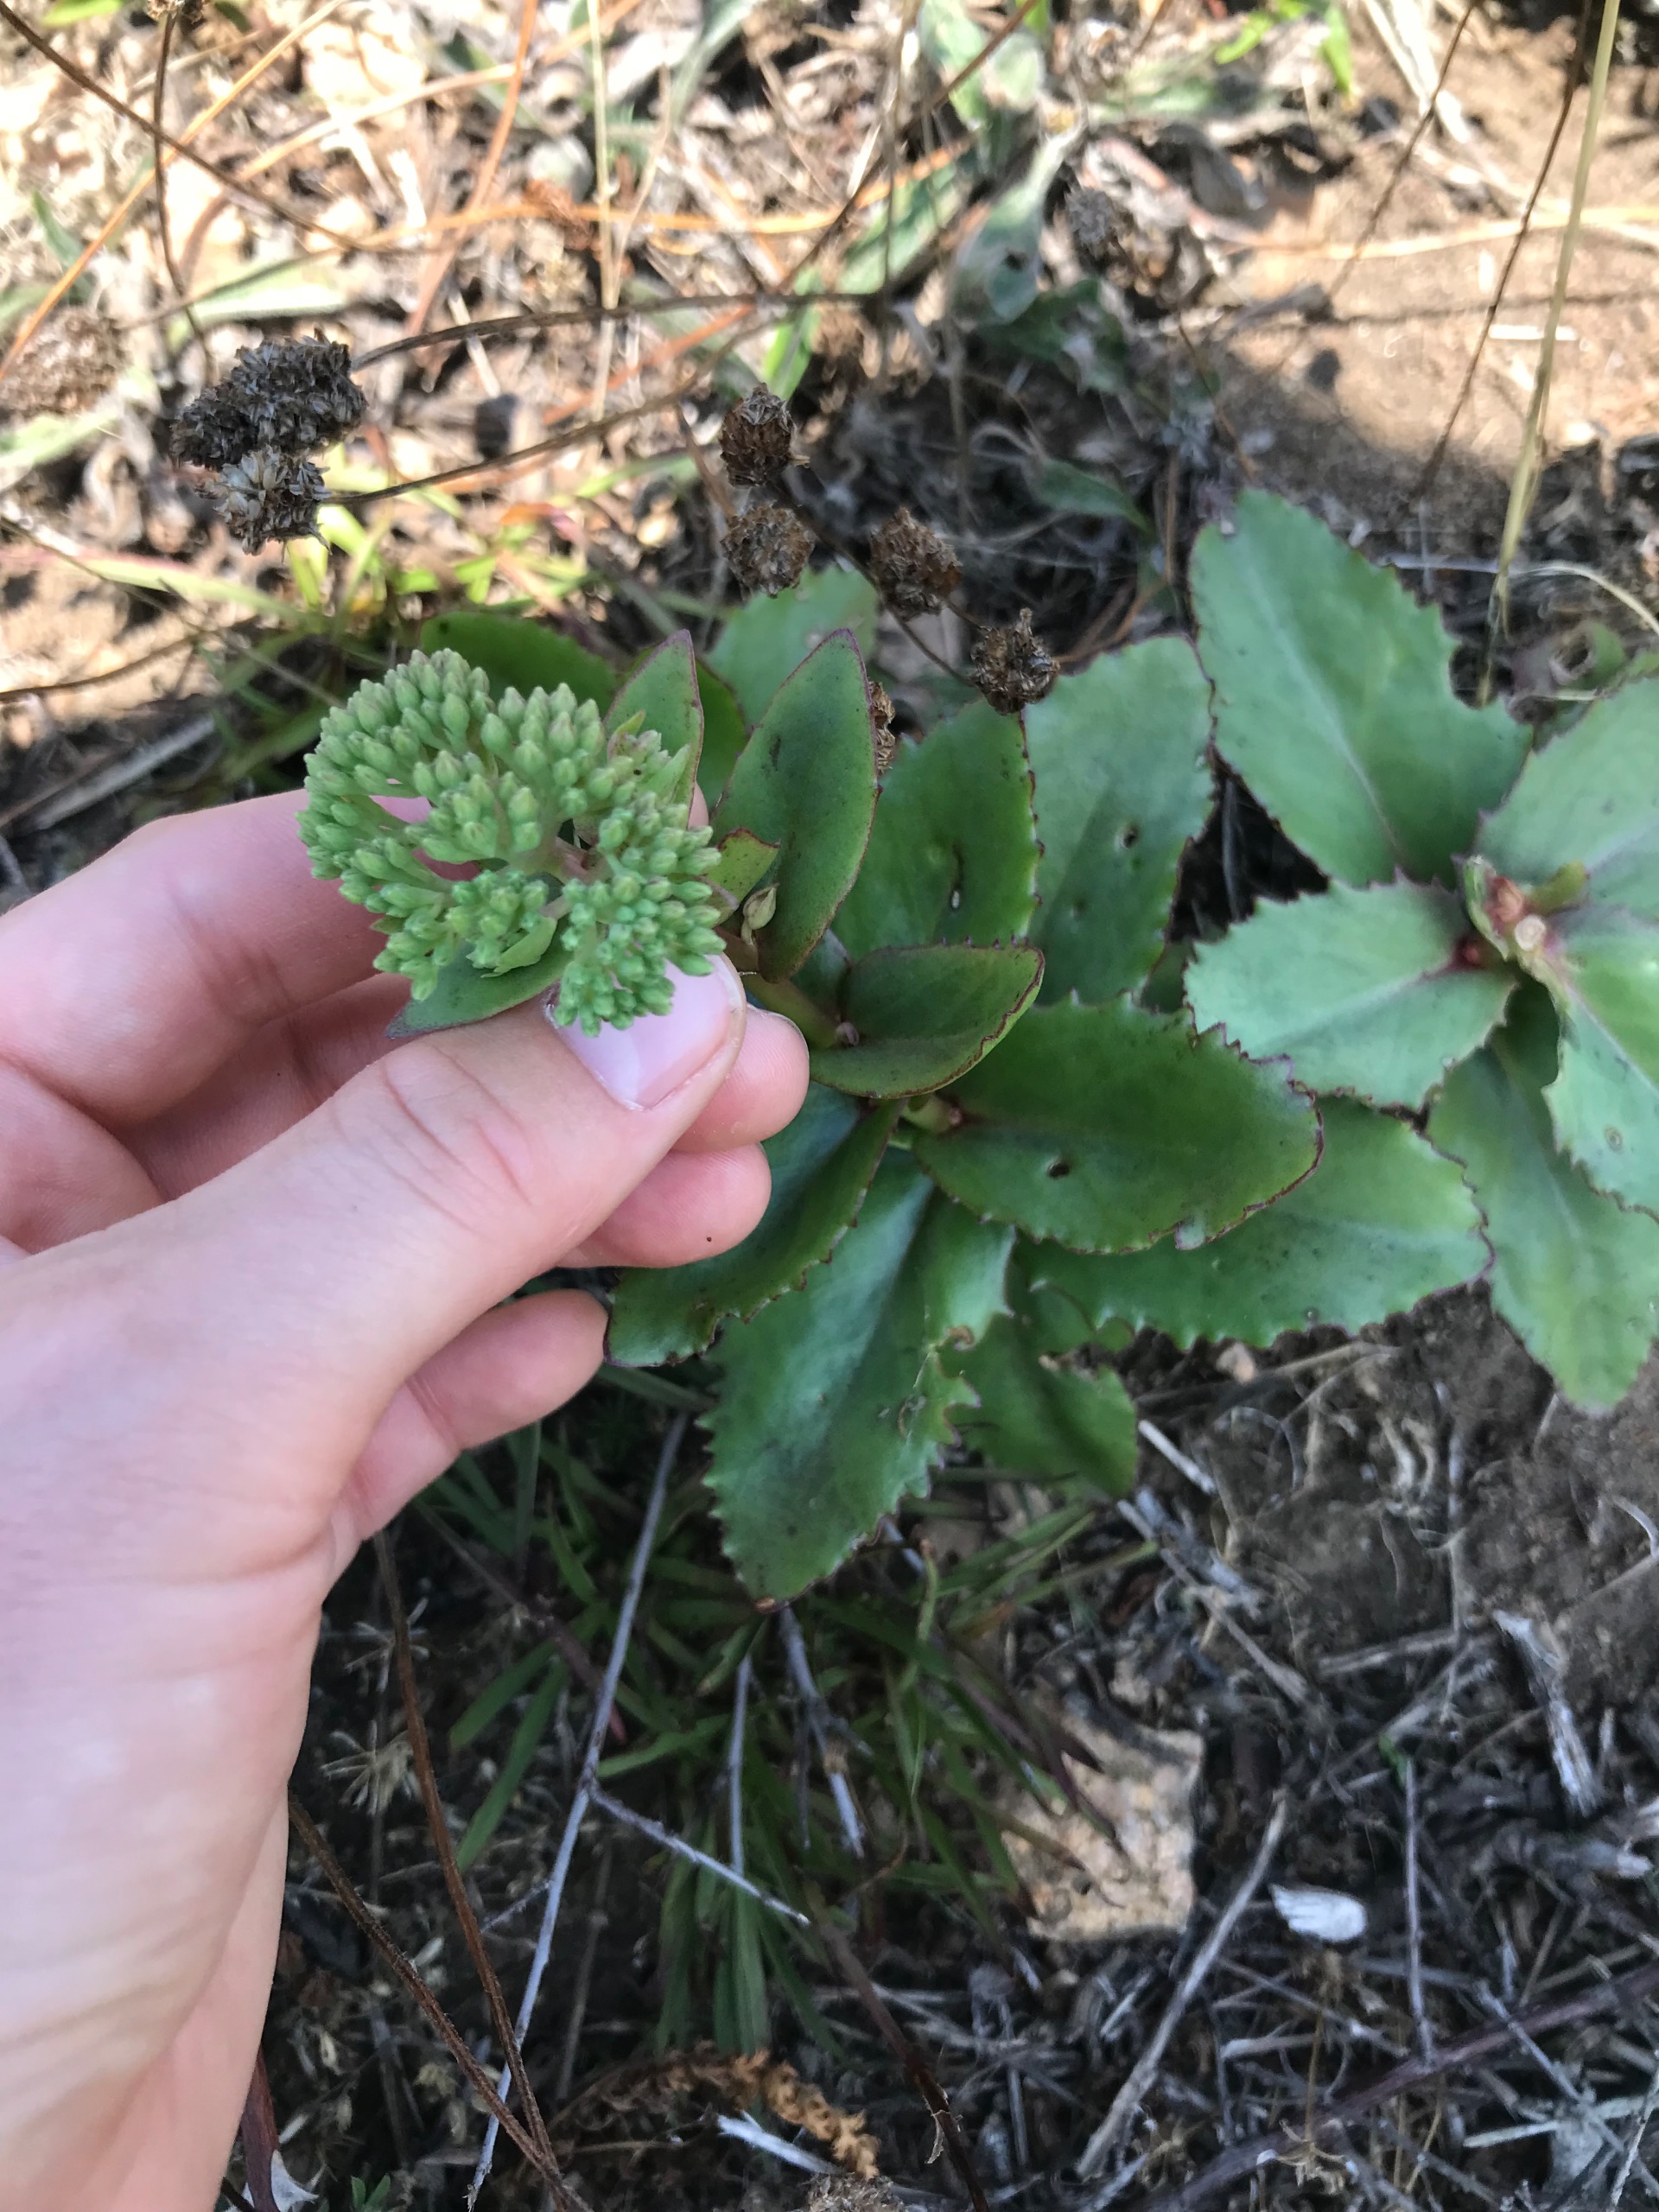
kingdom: Plantae
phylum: Tracheophyta
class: Magnoliopsida
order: Saxifragales
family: Crassulaceae
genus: Hylotelephium
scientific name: Hylotelephium maximum
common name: Almindelig sankthansurt
